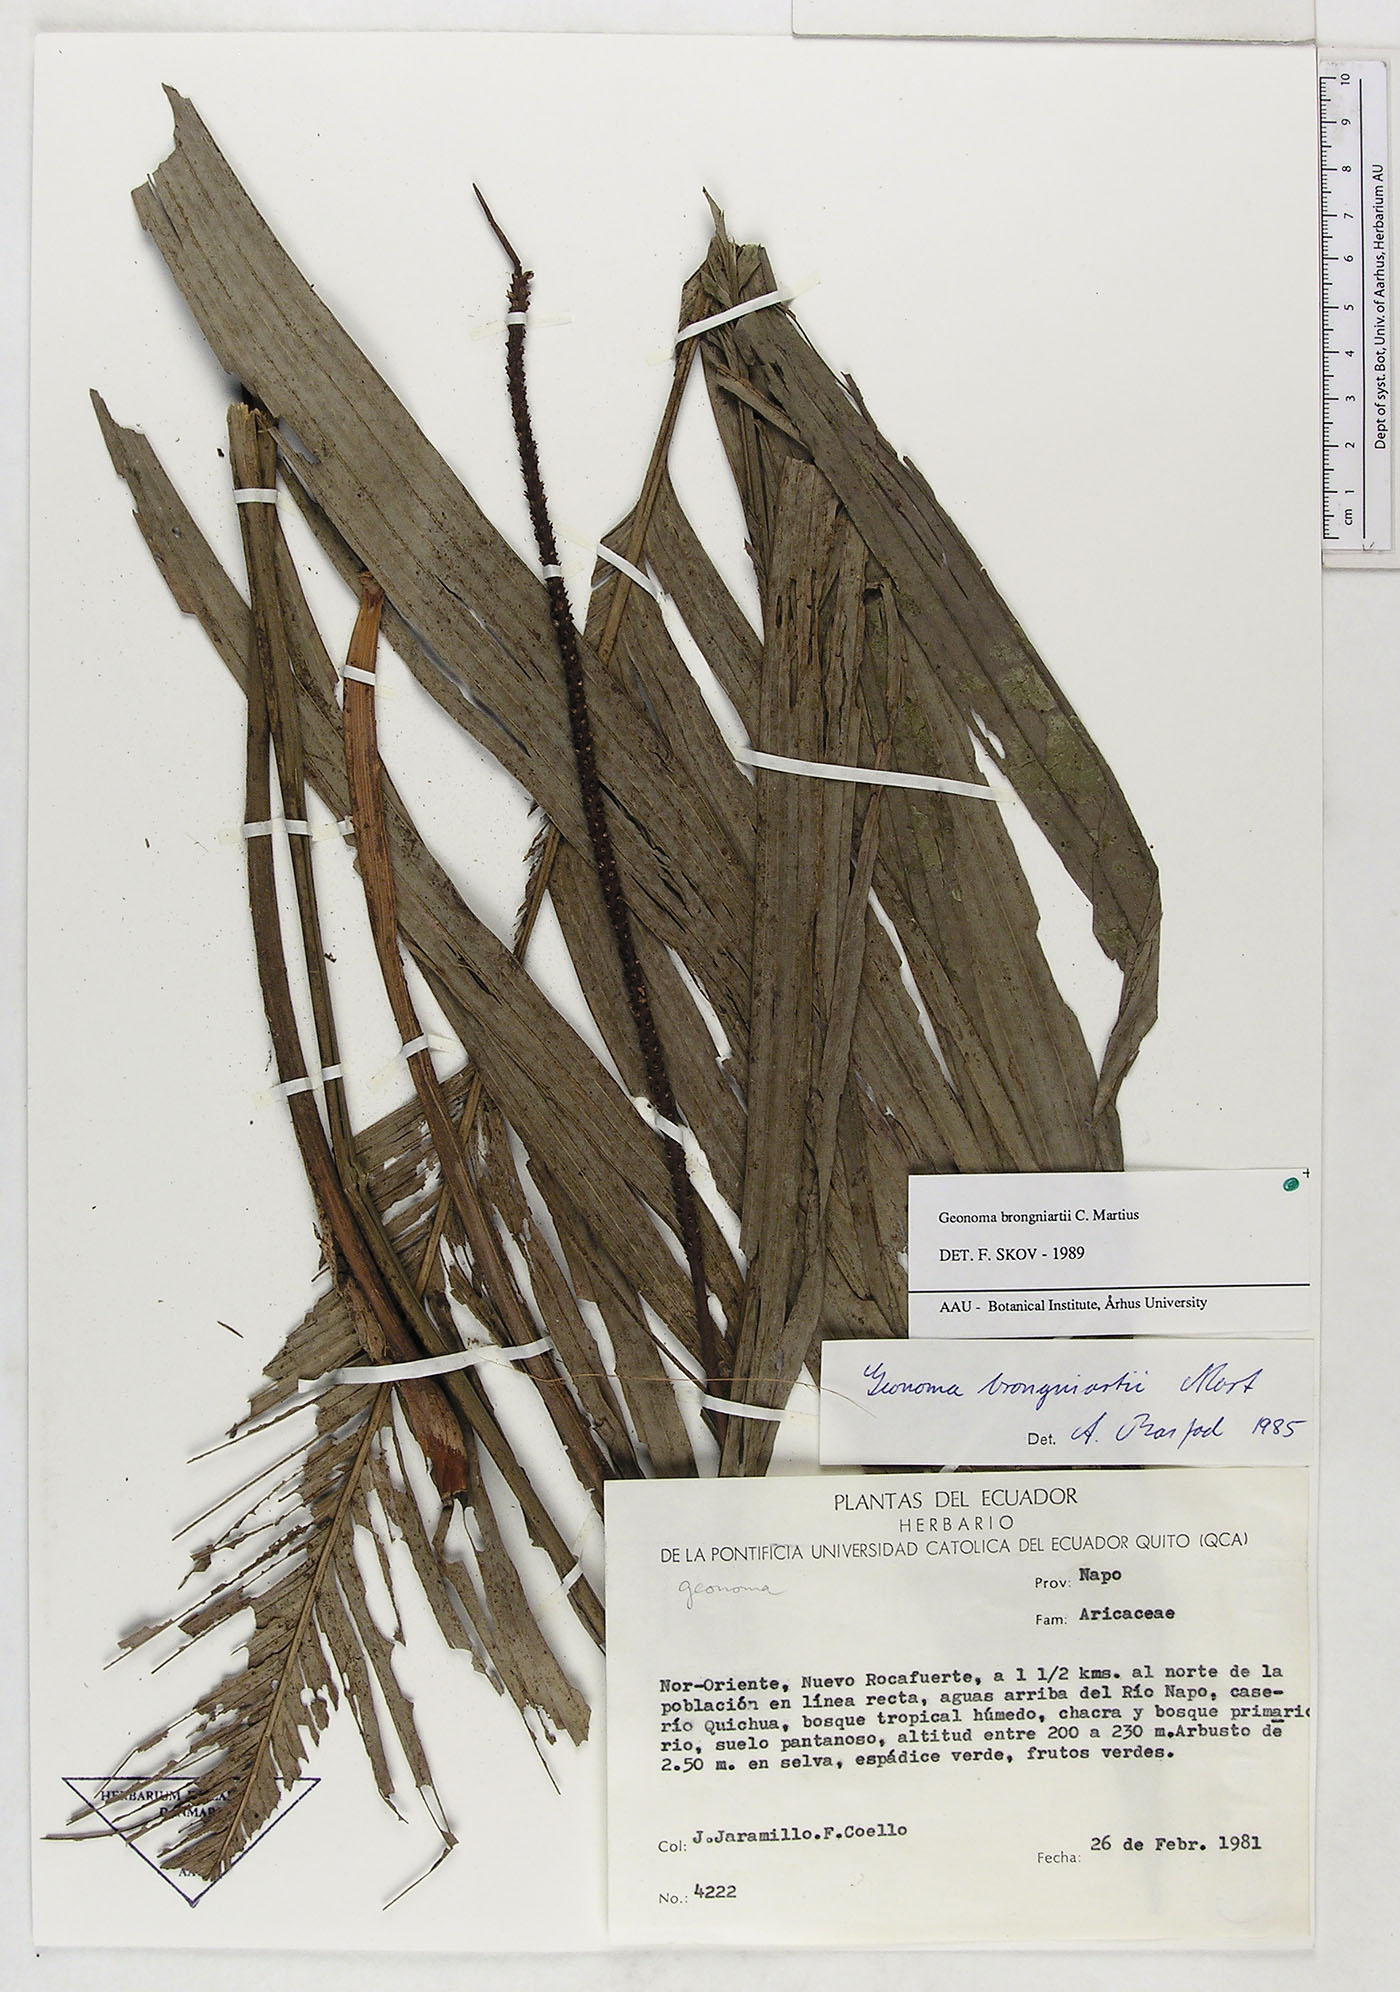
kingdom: Plantae
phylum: Tracheophyta
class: Liliopsida
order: Arecales
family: Arecaceae
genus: Geonoma
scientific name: Geonoma brongniartii
